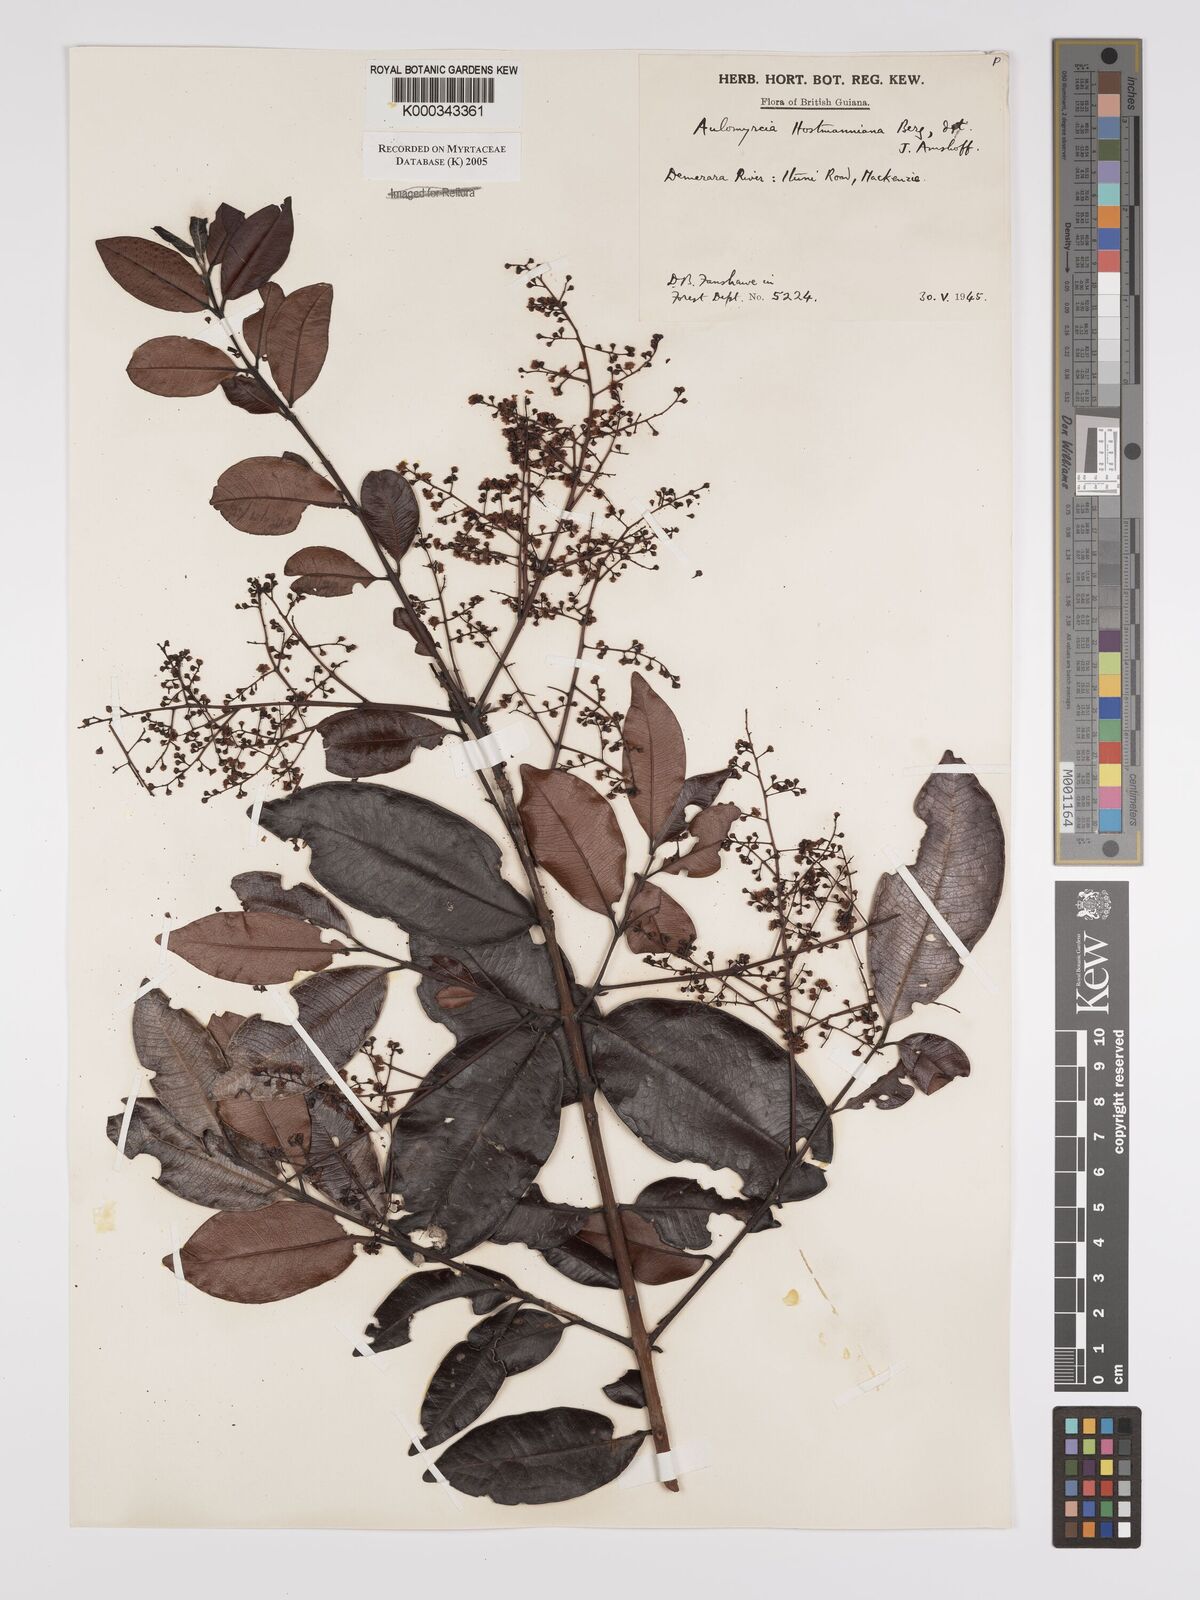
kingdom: Plantae
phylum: Tracheophyta
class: Magnoliopsida
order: Myrtales
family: Myrtaceae
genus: Myrcia
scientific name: Myrcia amazonica
